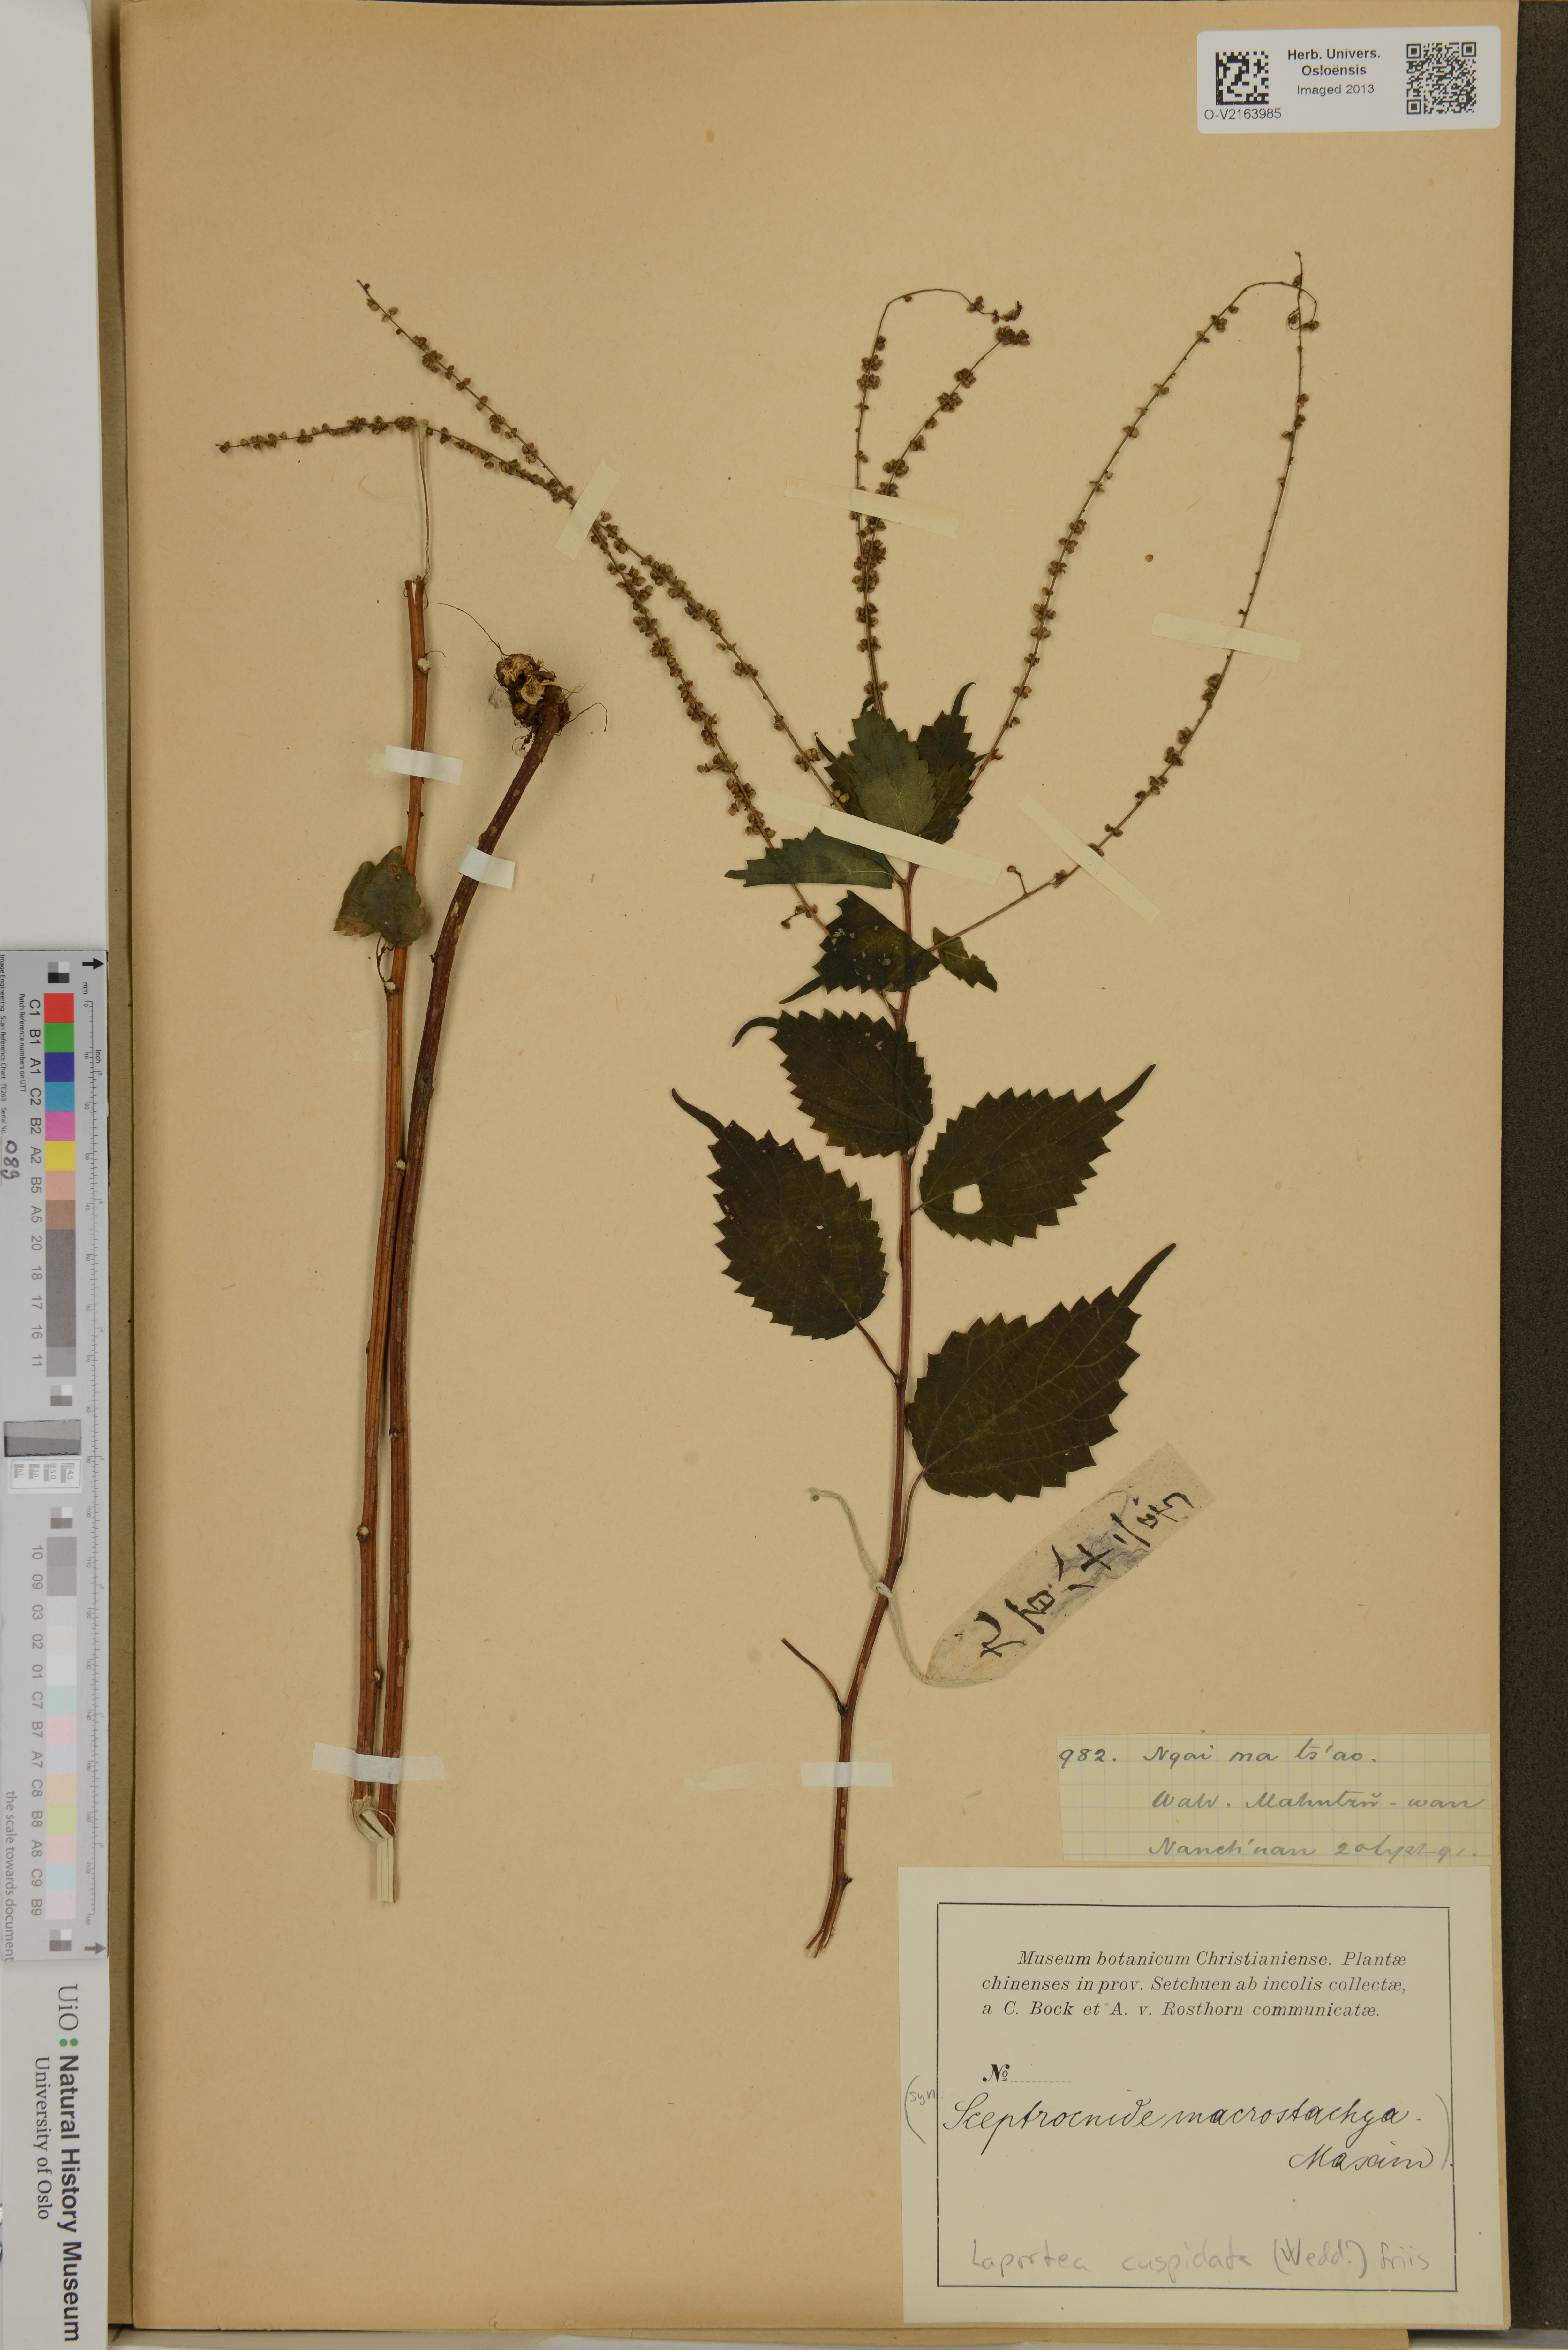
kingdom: Plantae
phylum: Tracheophyta
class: Magnoliopsida
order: Rosales
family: Urticaceae
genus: Laportea
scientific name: Laportea cuspidata
